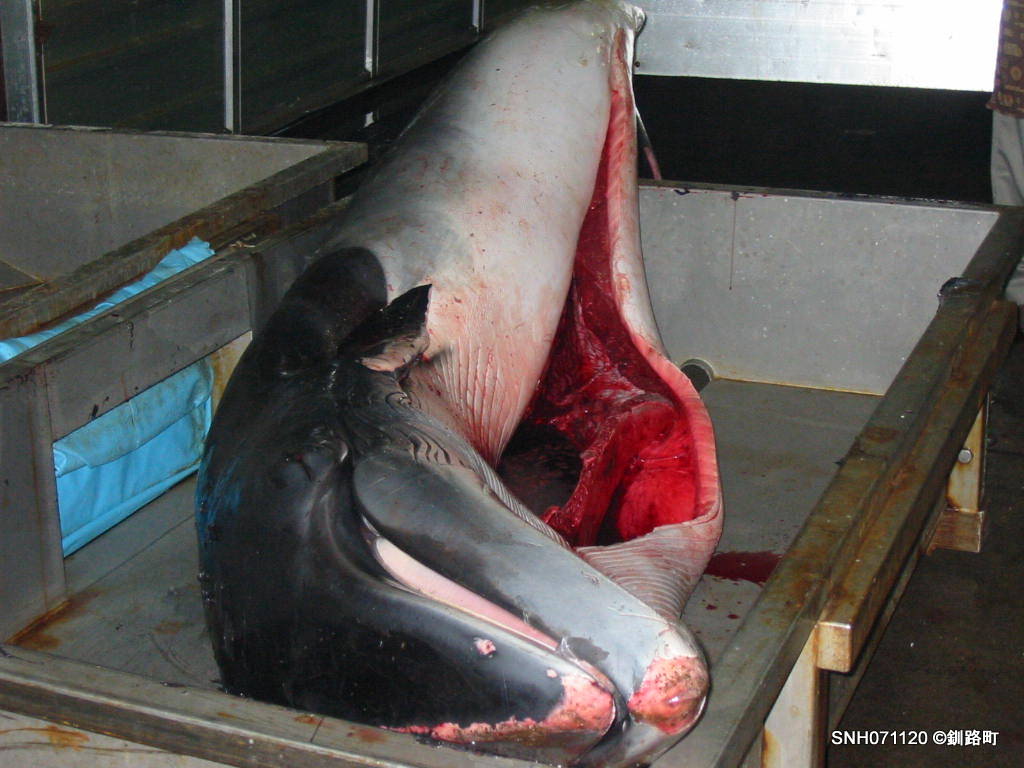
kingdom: Animalia
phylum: Chordata
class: Mammalia
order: Cetacea
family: Balaenopteridae
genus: Balaenoptera
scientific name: Balaenoptera acutorostrata
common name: Minke whale
